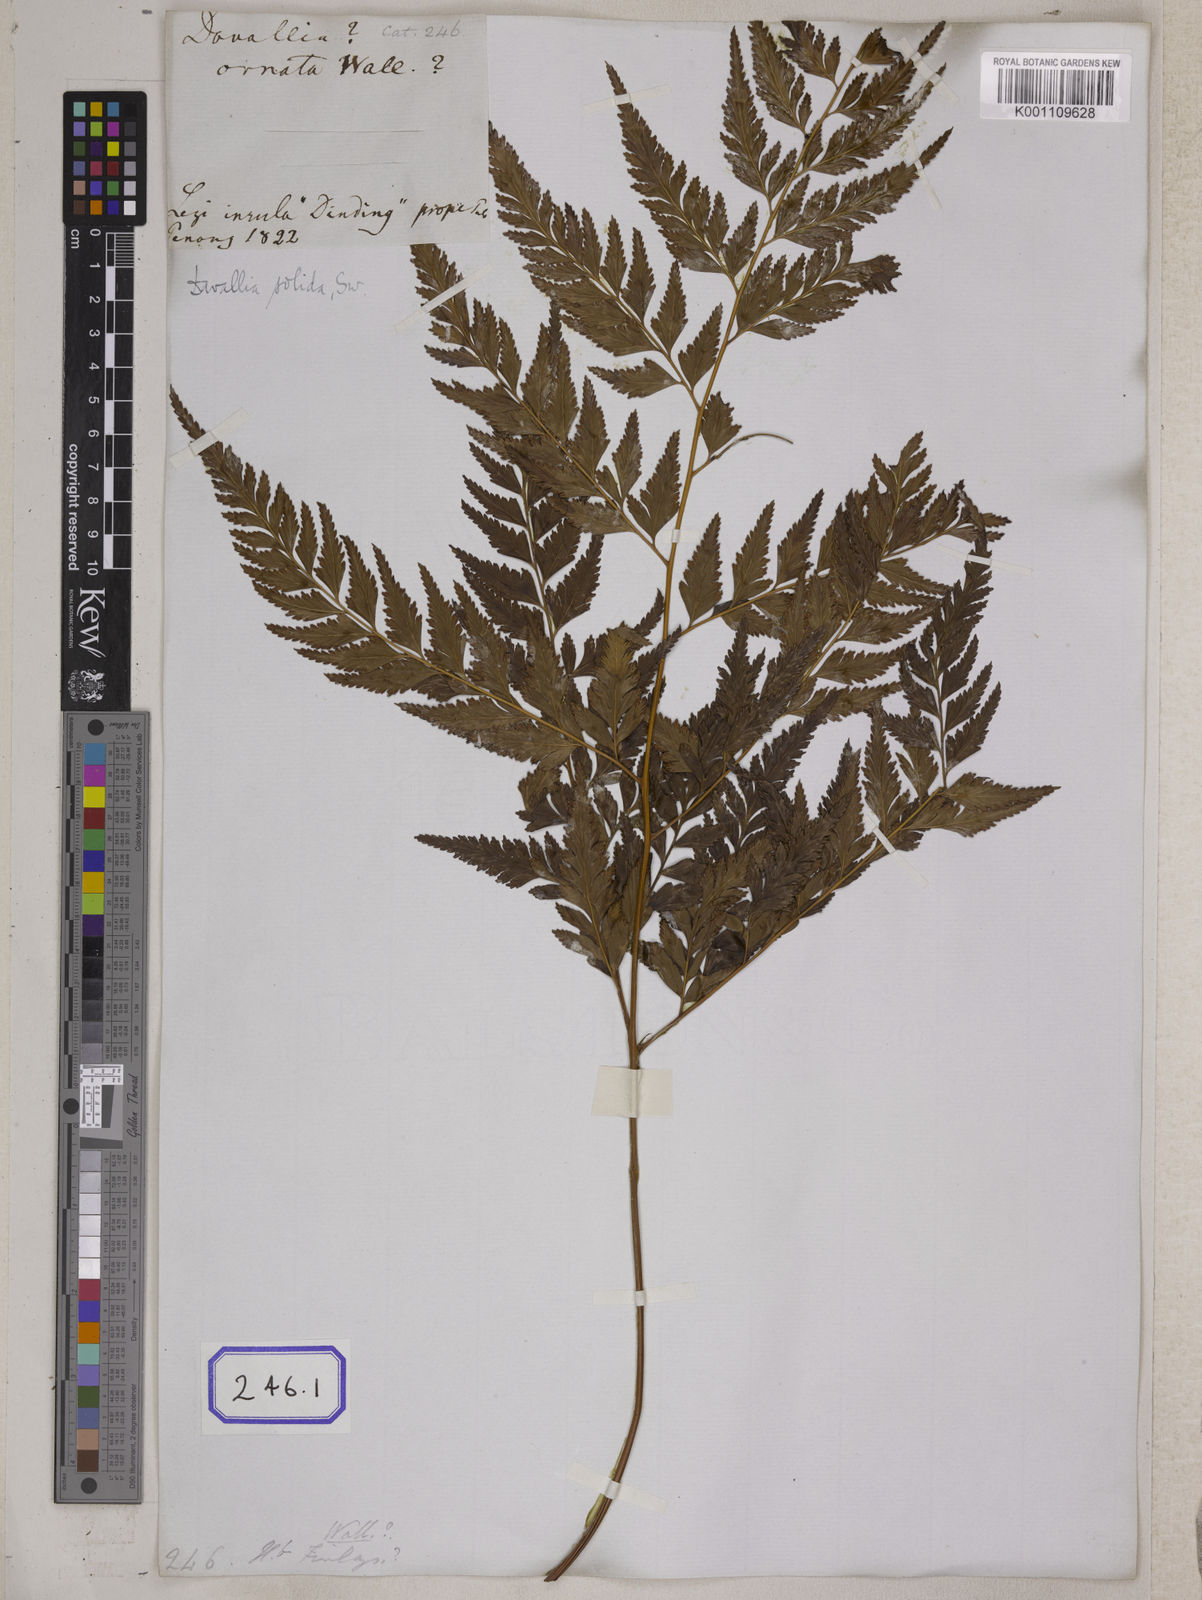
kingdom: Plantae
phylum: Tracheophyta
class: Polypodiopsida
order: Polypodiales
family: Davalliaceae
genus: Davallia
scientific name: Davallia solida
